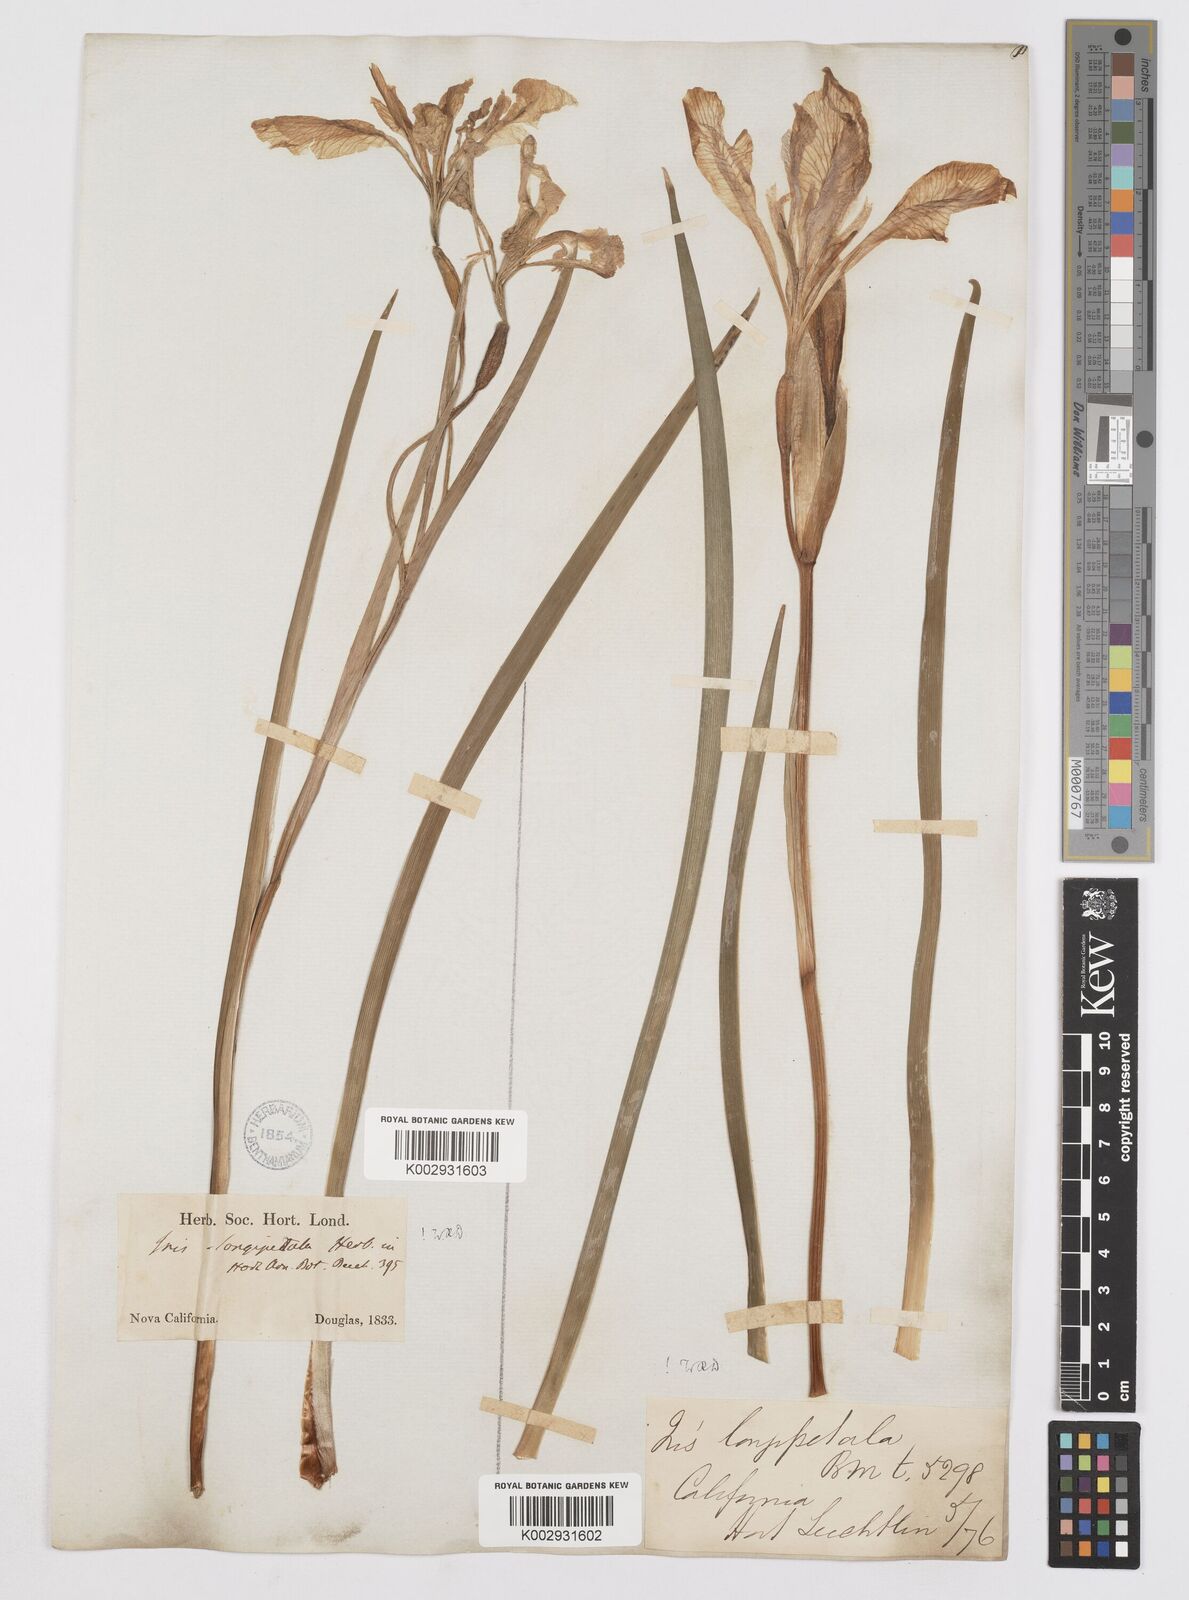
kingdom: Plantae
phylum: Tracheophyta
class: Liliopsida
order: Asparagales
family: Iridaceae
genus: Iris
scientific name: Iris longipetala
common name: Long-petal iris
